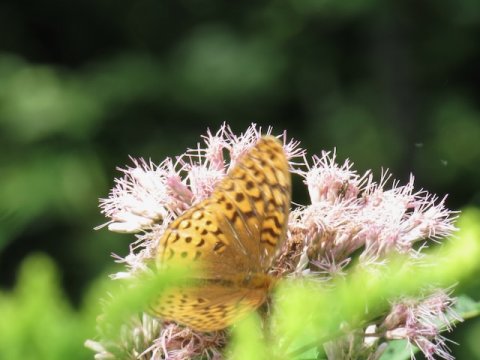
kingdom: Animalia
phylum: Arthropoda
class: Insecta
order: Lepidoptera
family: Nymphalidae
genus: Speyeria
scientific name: Speyeria cybele
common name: Great Spangled Fritillary
